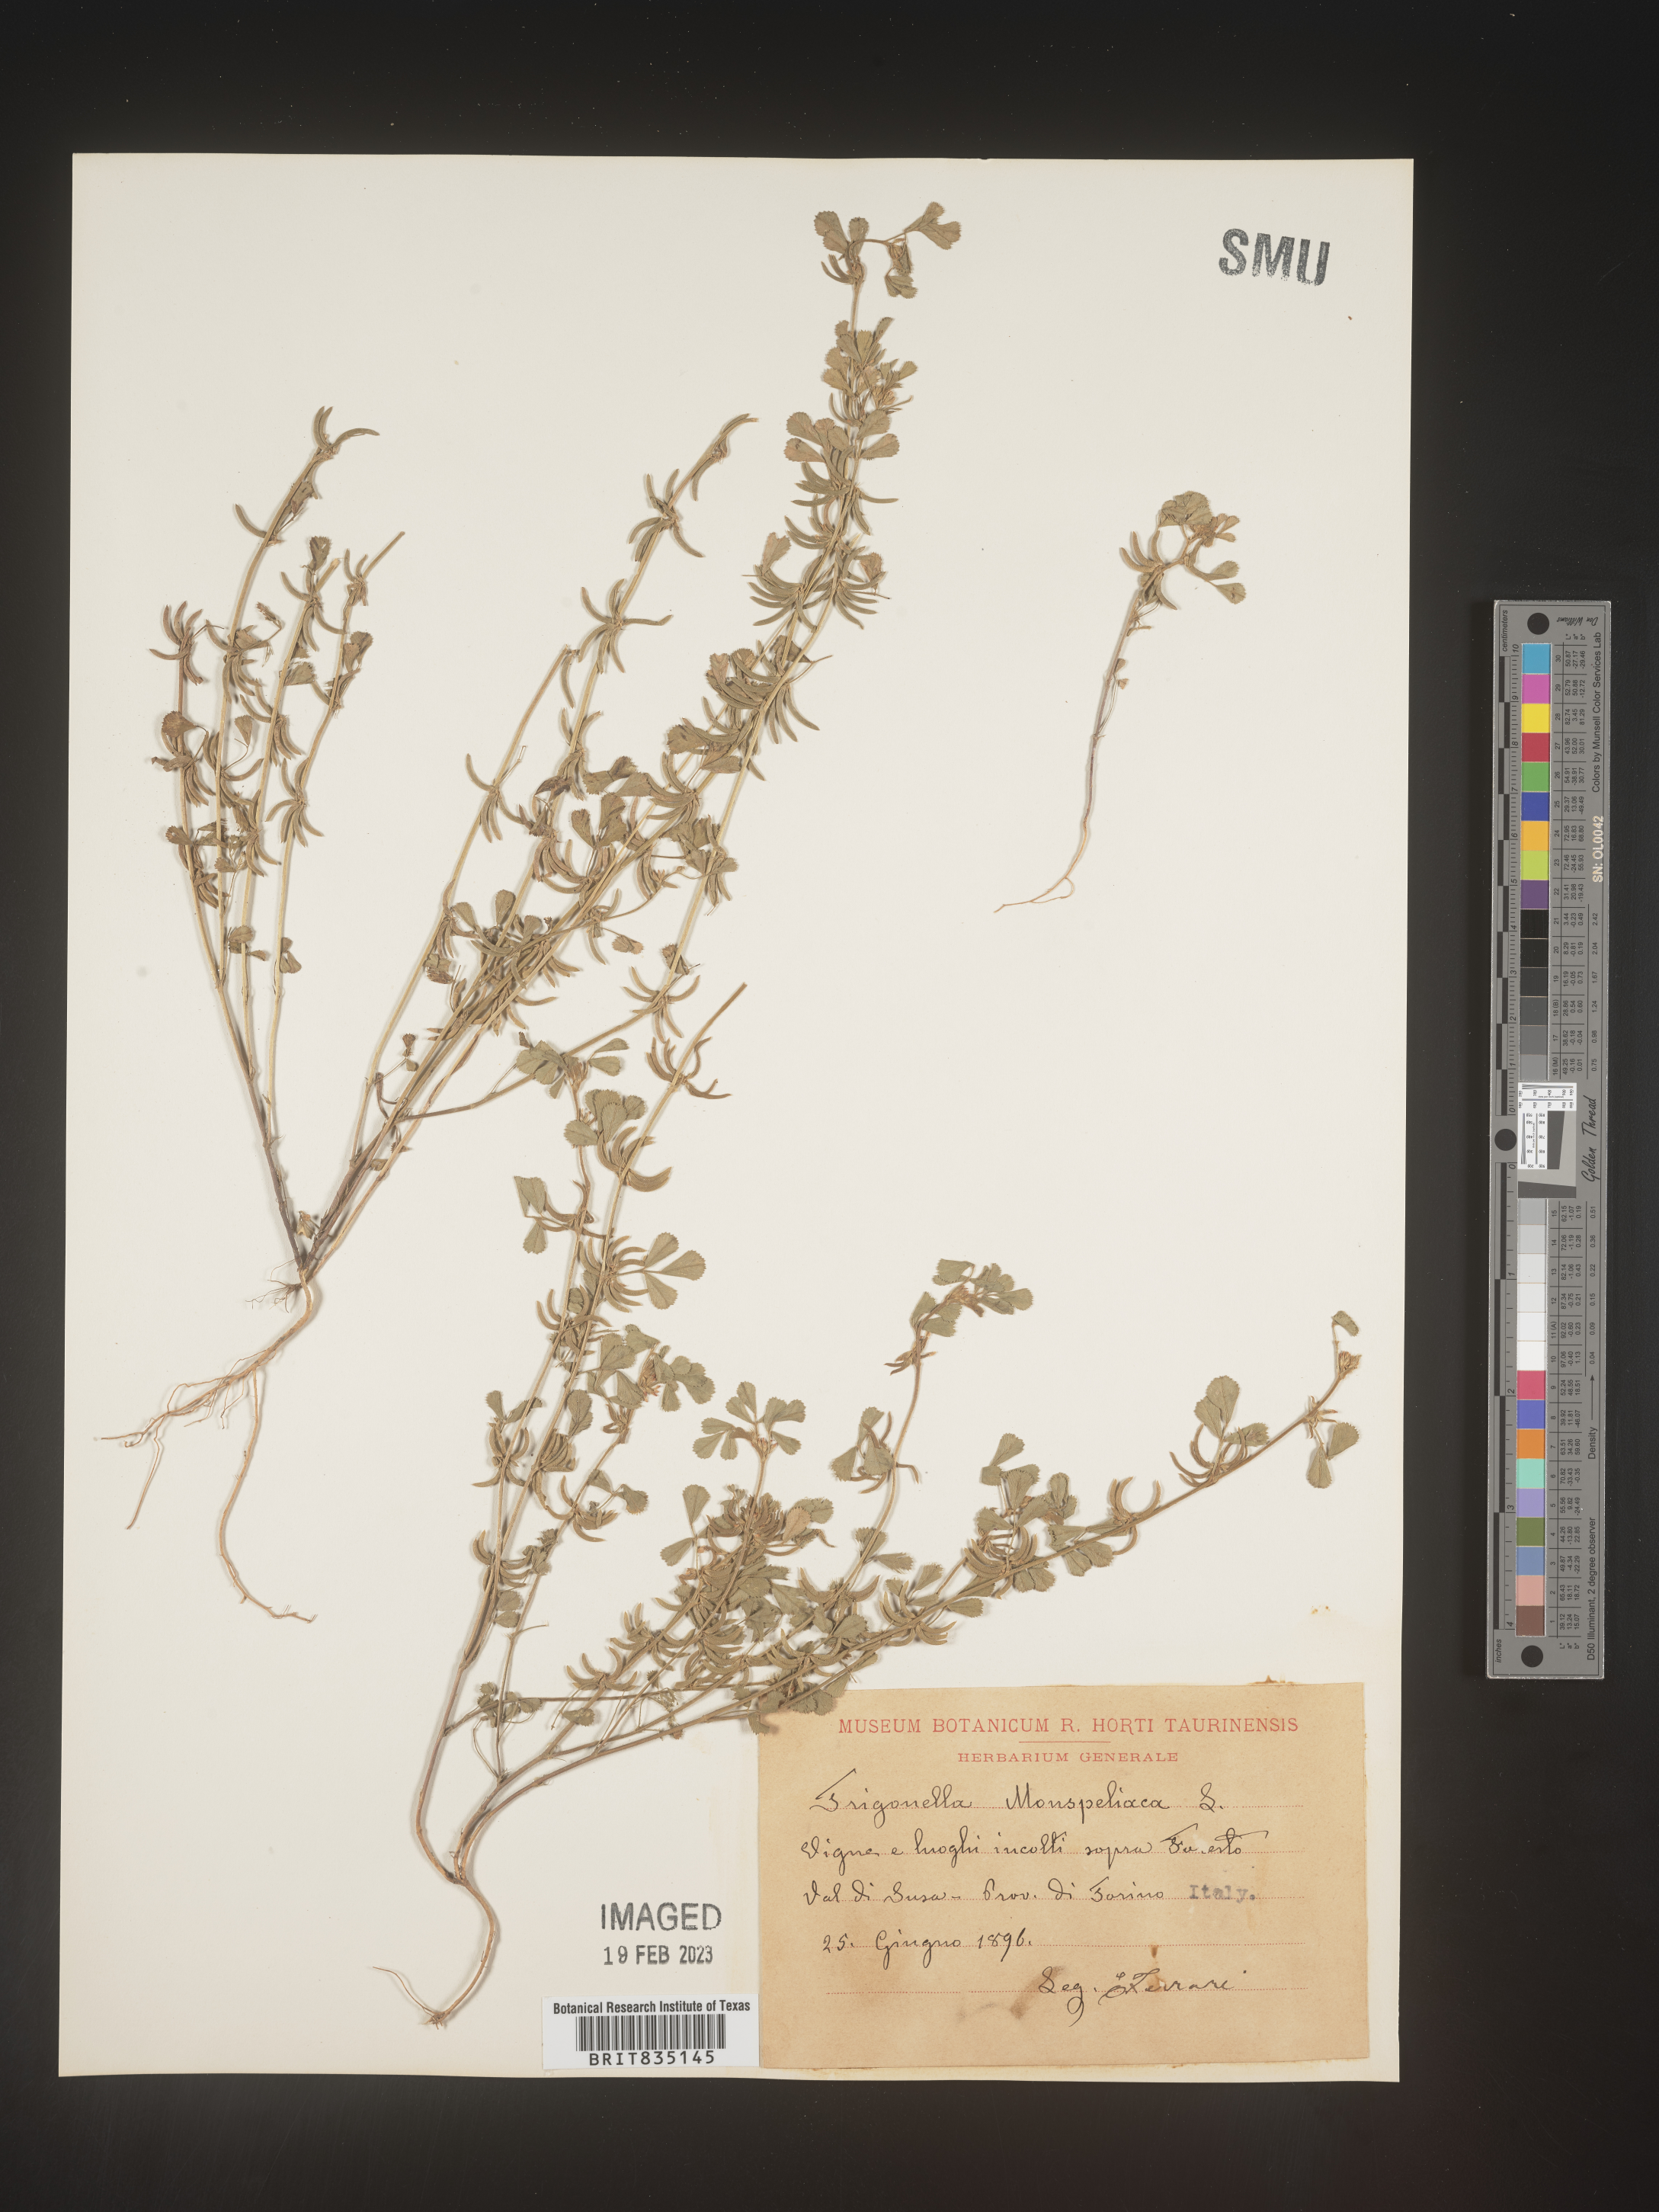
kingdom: Plantae
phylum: Tracheophyta
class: Magnoliopsida
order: Fabales
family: Fabaceae
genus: Trigonella
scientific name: Trigonella
